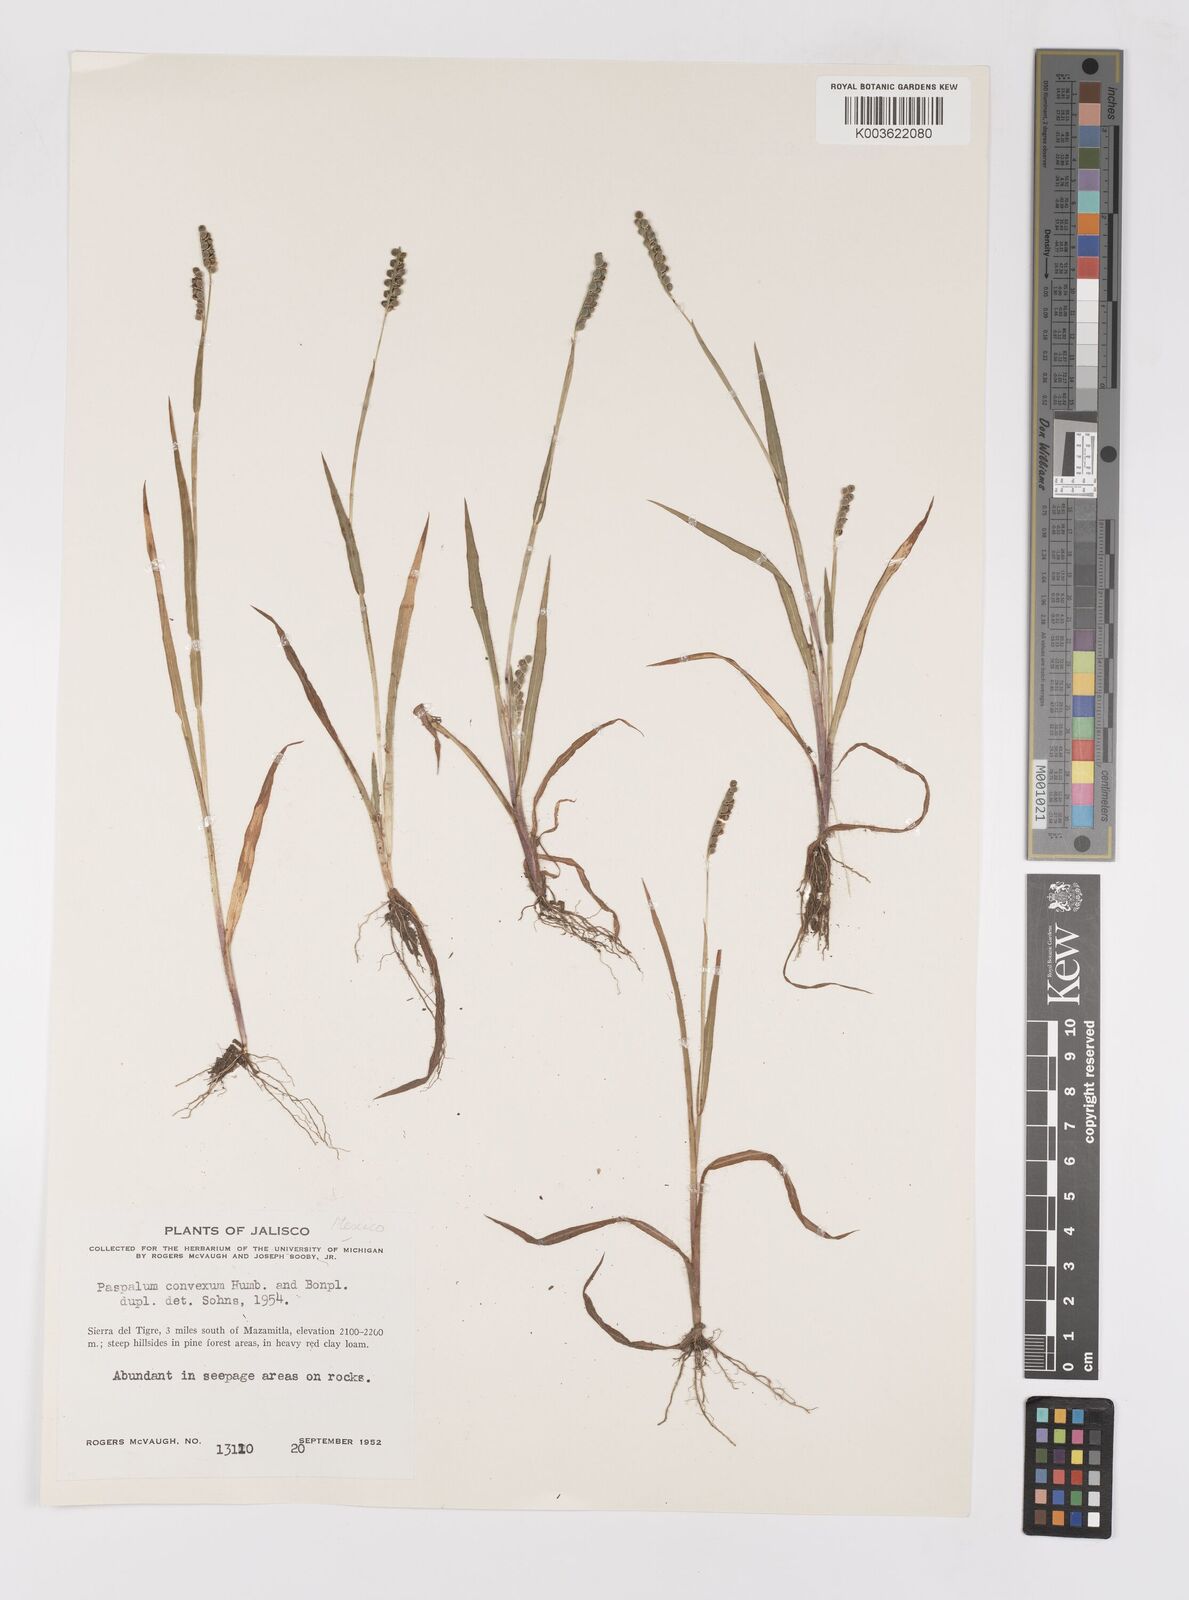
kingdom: Plantae
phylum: Tracheophyta
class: Liliopsida
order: Poales
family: Poaceae
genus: Paspalum
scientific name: Paspalum convexum
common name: Latin american crowngrass
